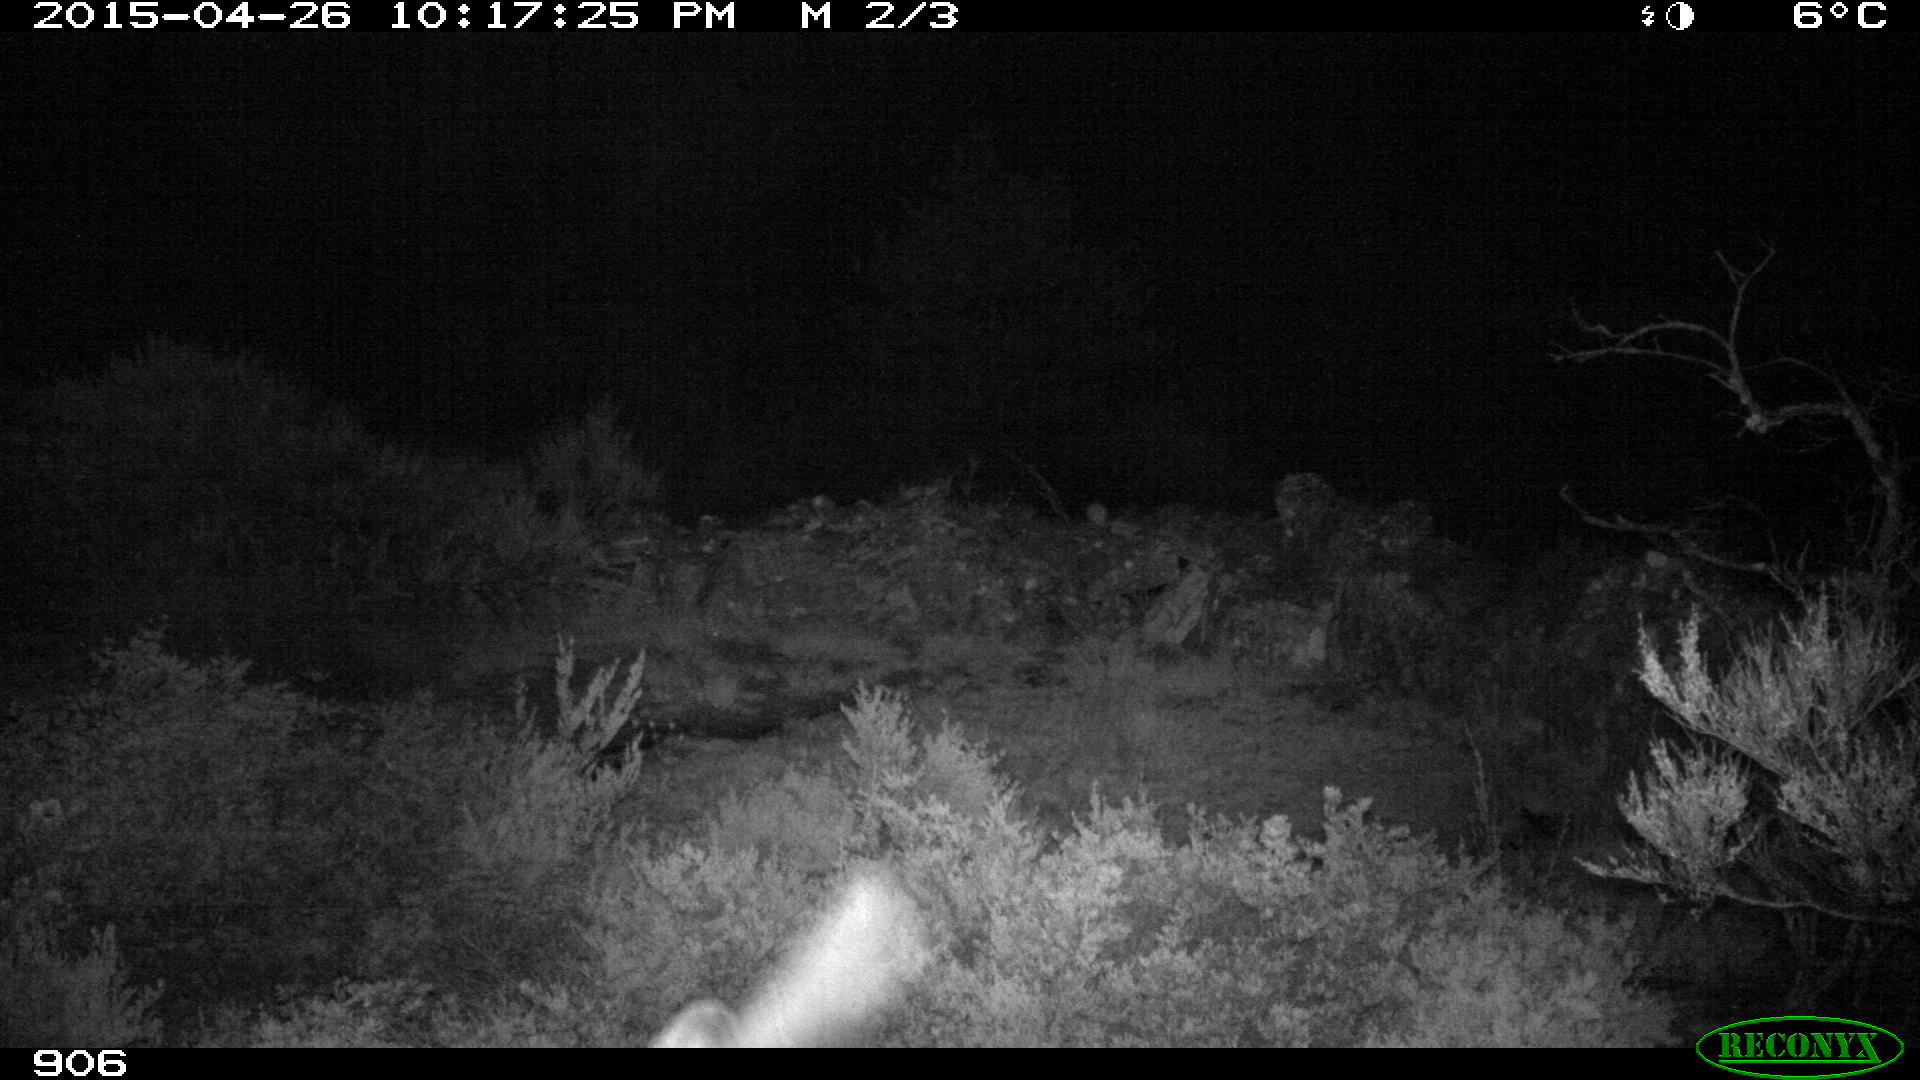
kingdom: Animalia
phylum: Chordata
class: Mammalia
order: Carnivora
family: Canidae
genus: Canis
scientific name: Canis lupus
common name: Gray wolf
